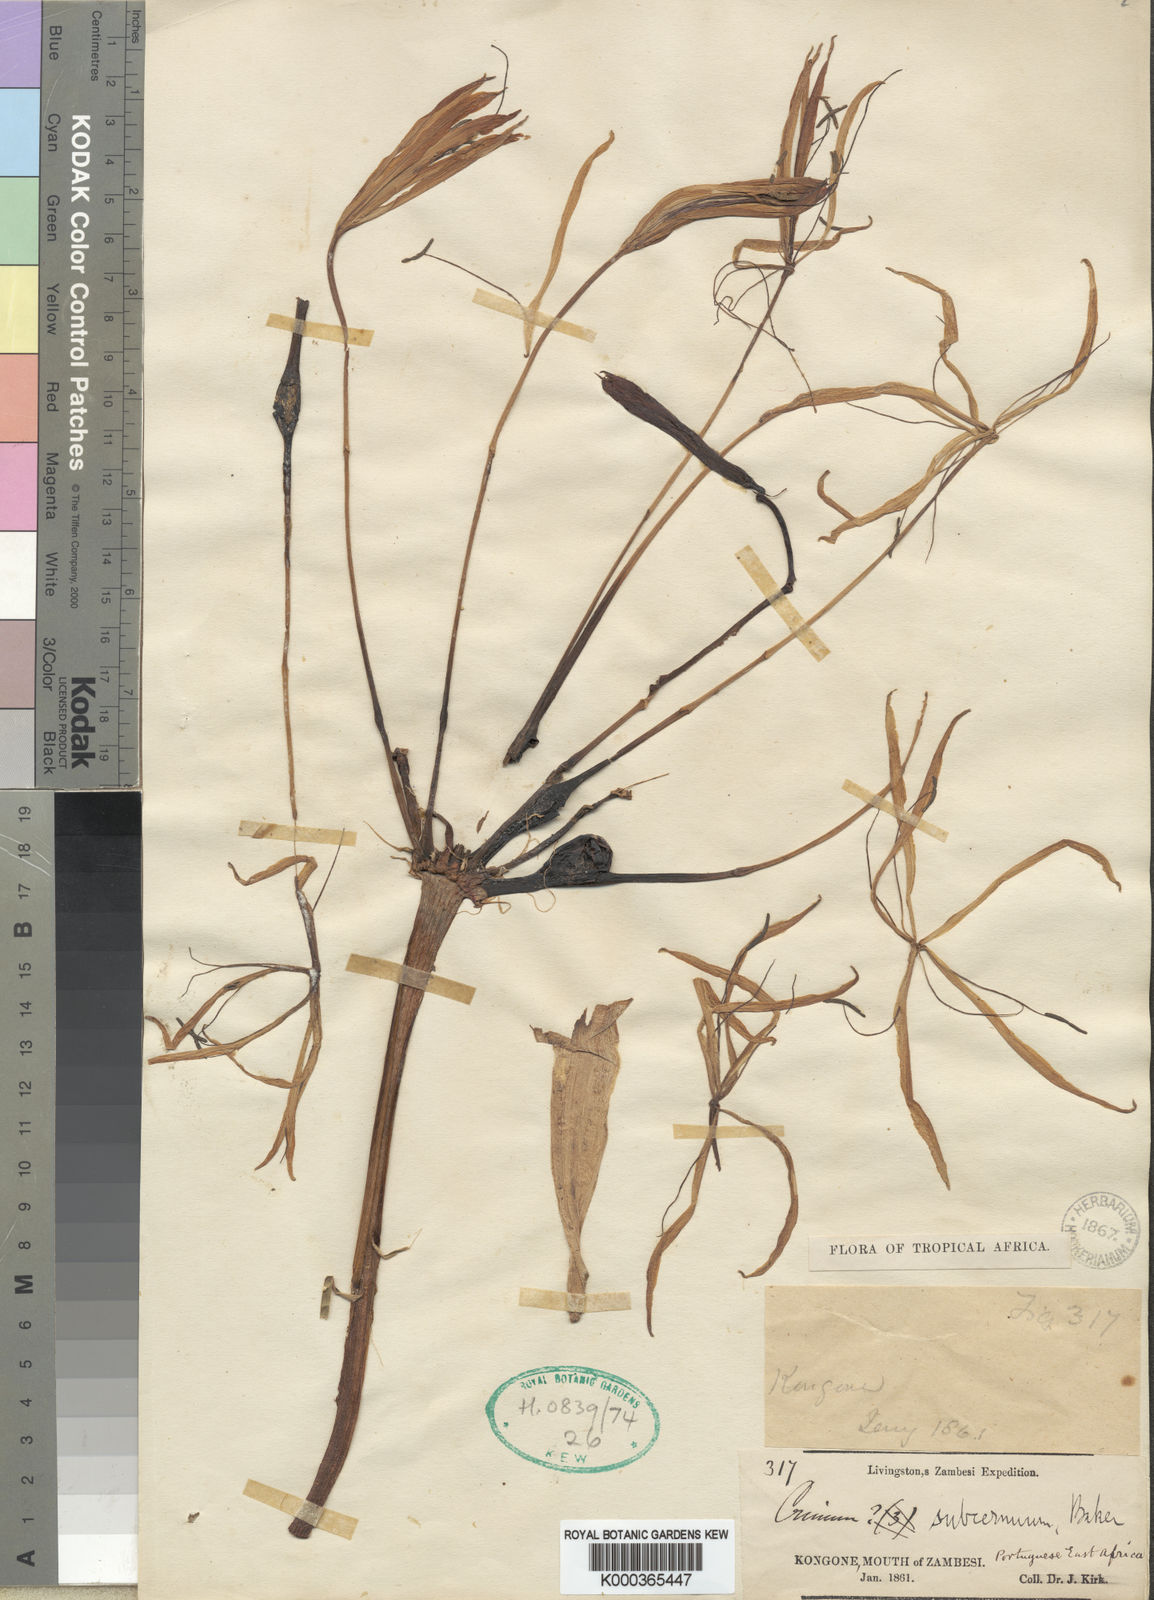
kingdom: Plantae
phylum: Tracheophyta
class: Liliopsida
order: Asparagales
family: Amaryllidaceae
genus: Crinum
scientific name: Crinum subcernuum
